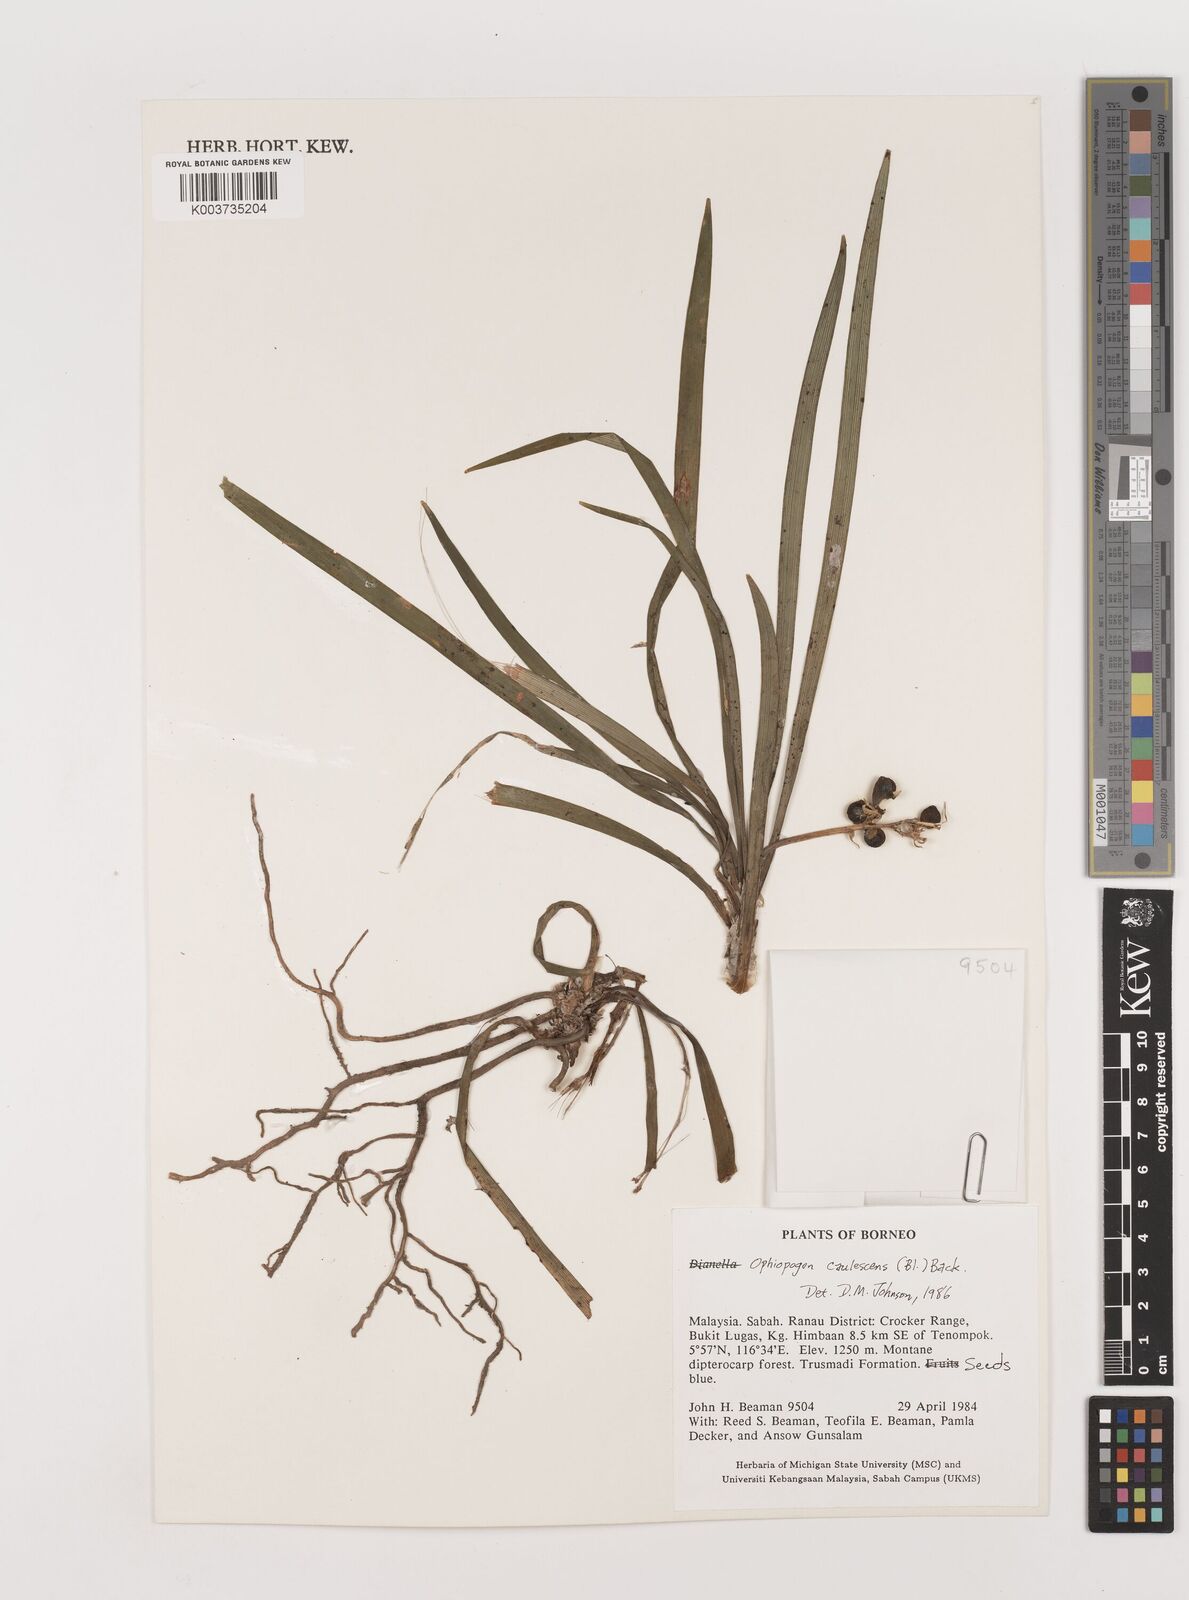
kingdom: Plantae
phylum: Tracheophyta
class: Liliopsida
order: Asparagales
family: Asparagaceae
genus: Ophiopogon
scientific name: Ophiopogon caulescens
